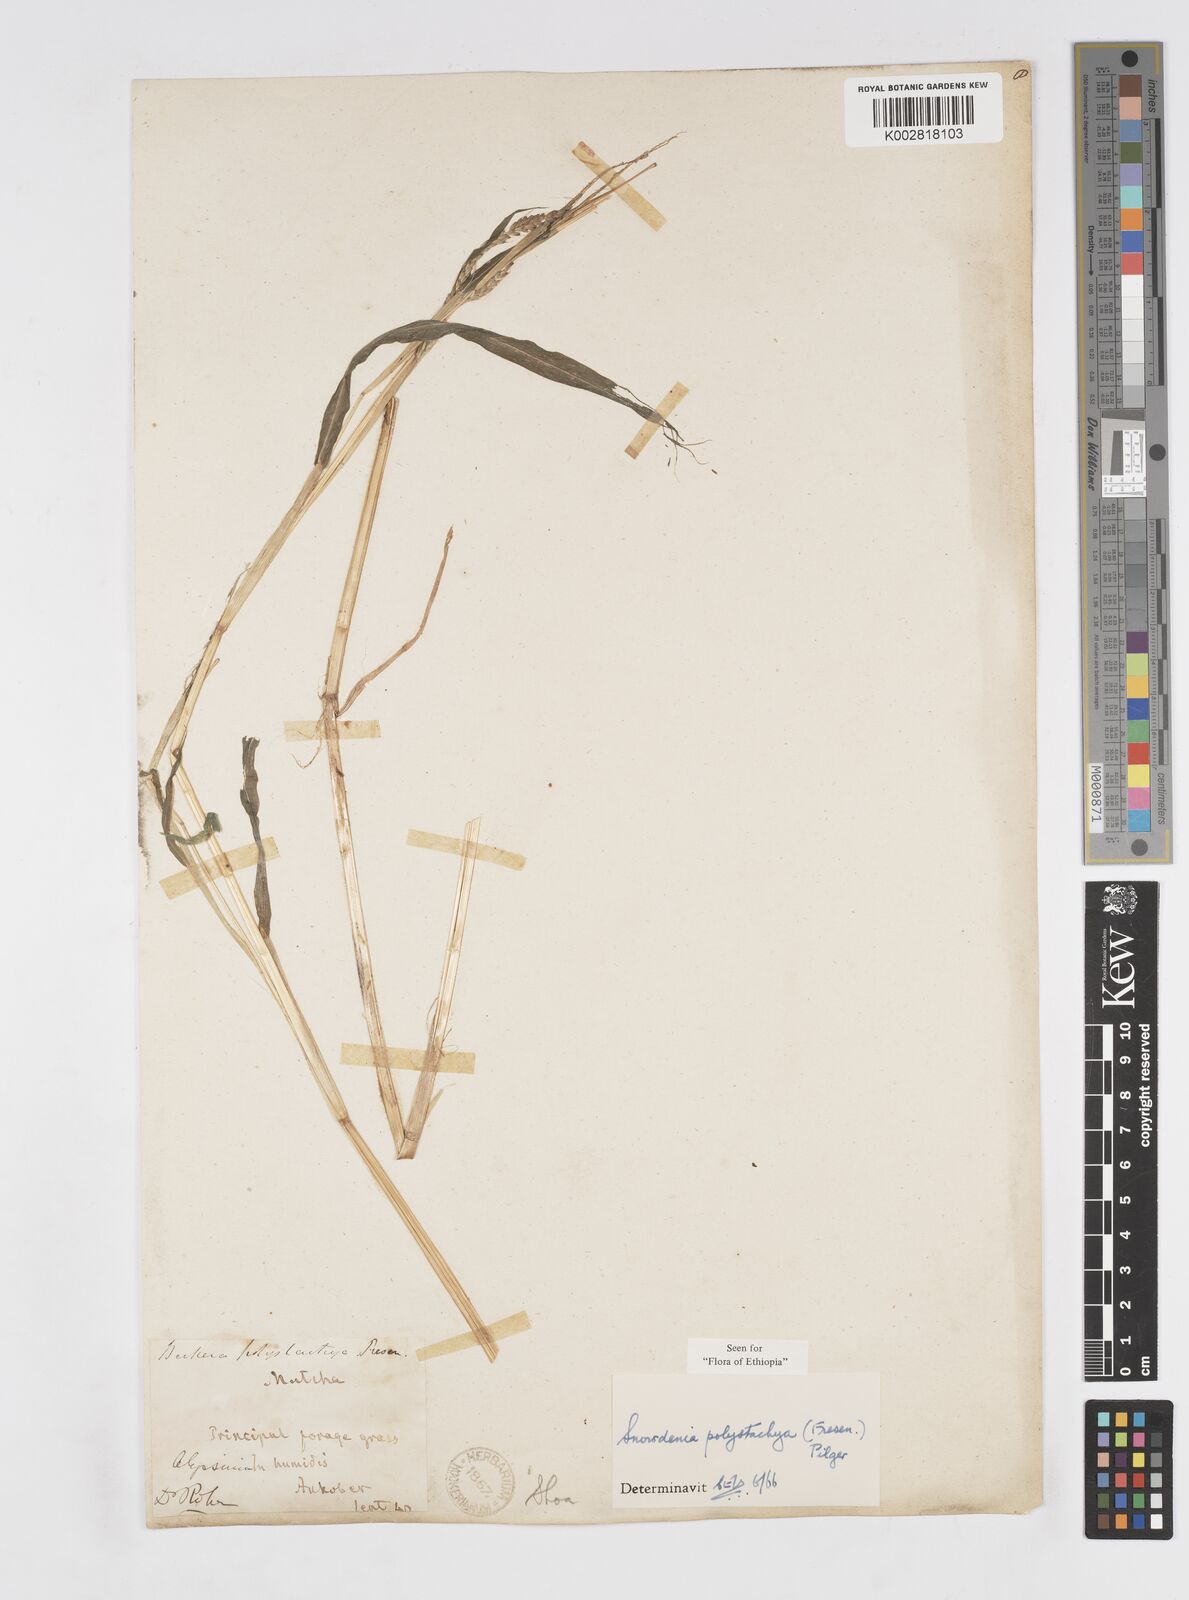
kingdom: Plantae
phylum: Tracheophyta
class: Liliopsida
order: Poales
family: Poaceae
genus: Snowdenia
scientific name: Snowdenia polystachya
